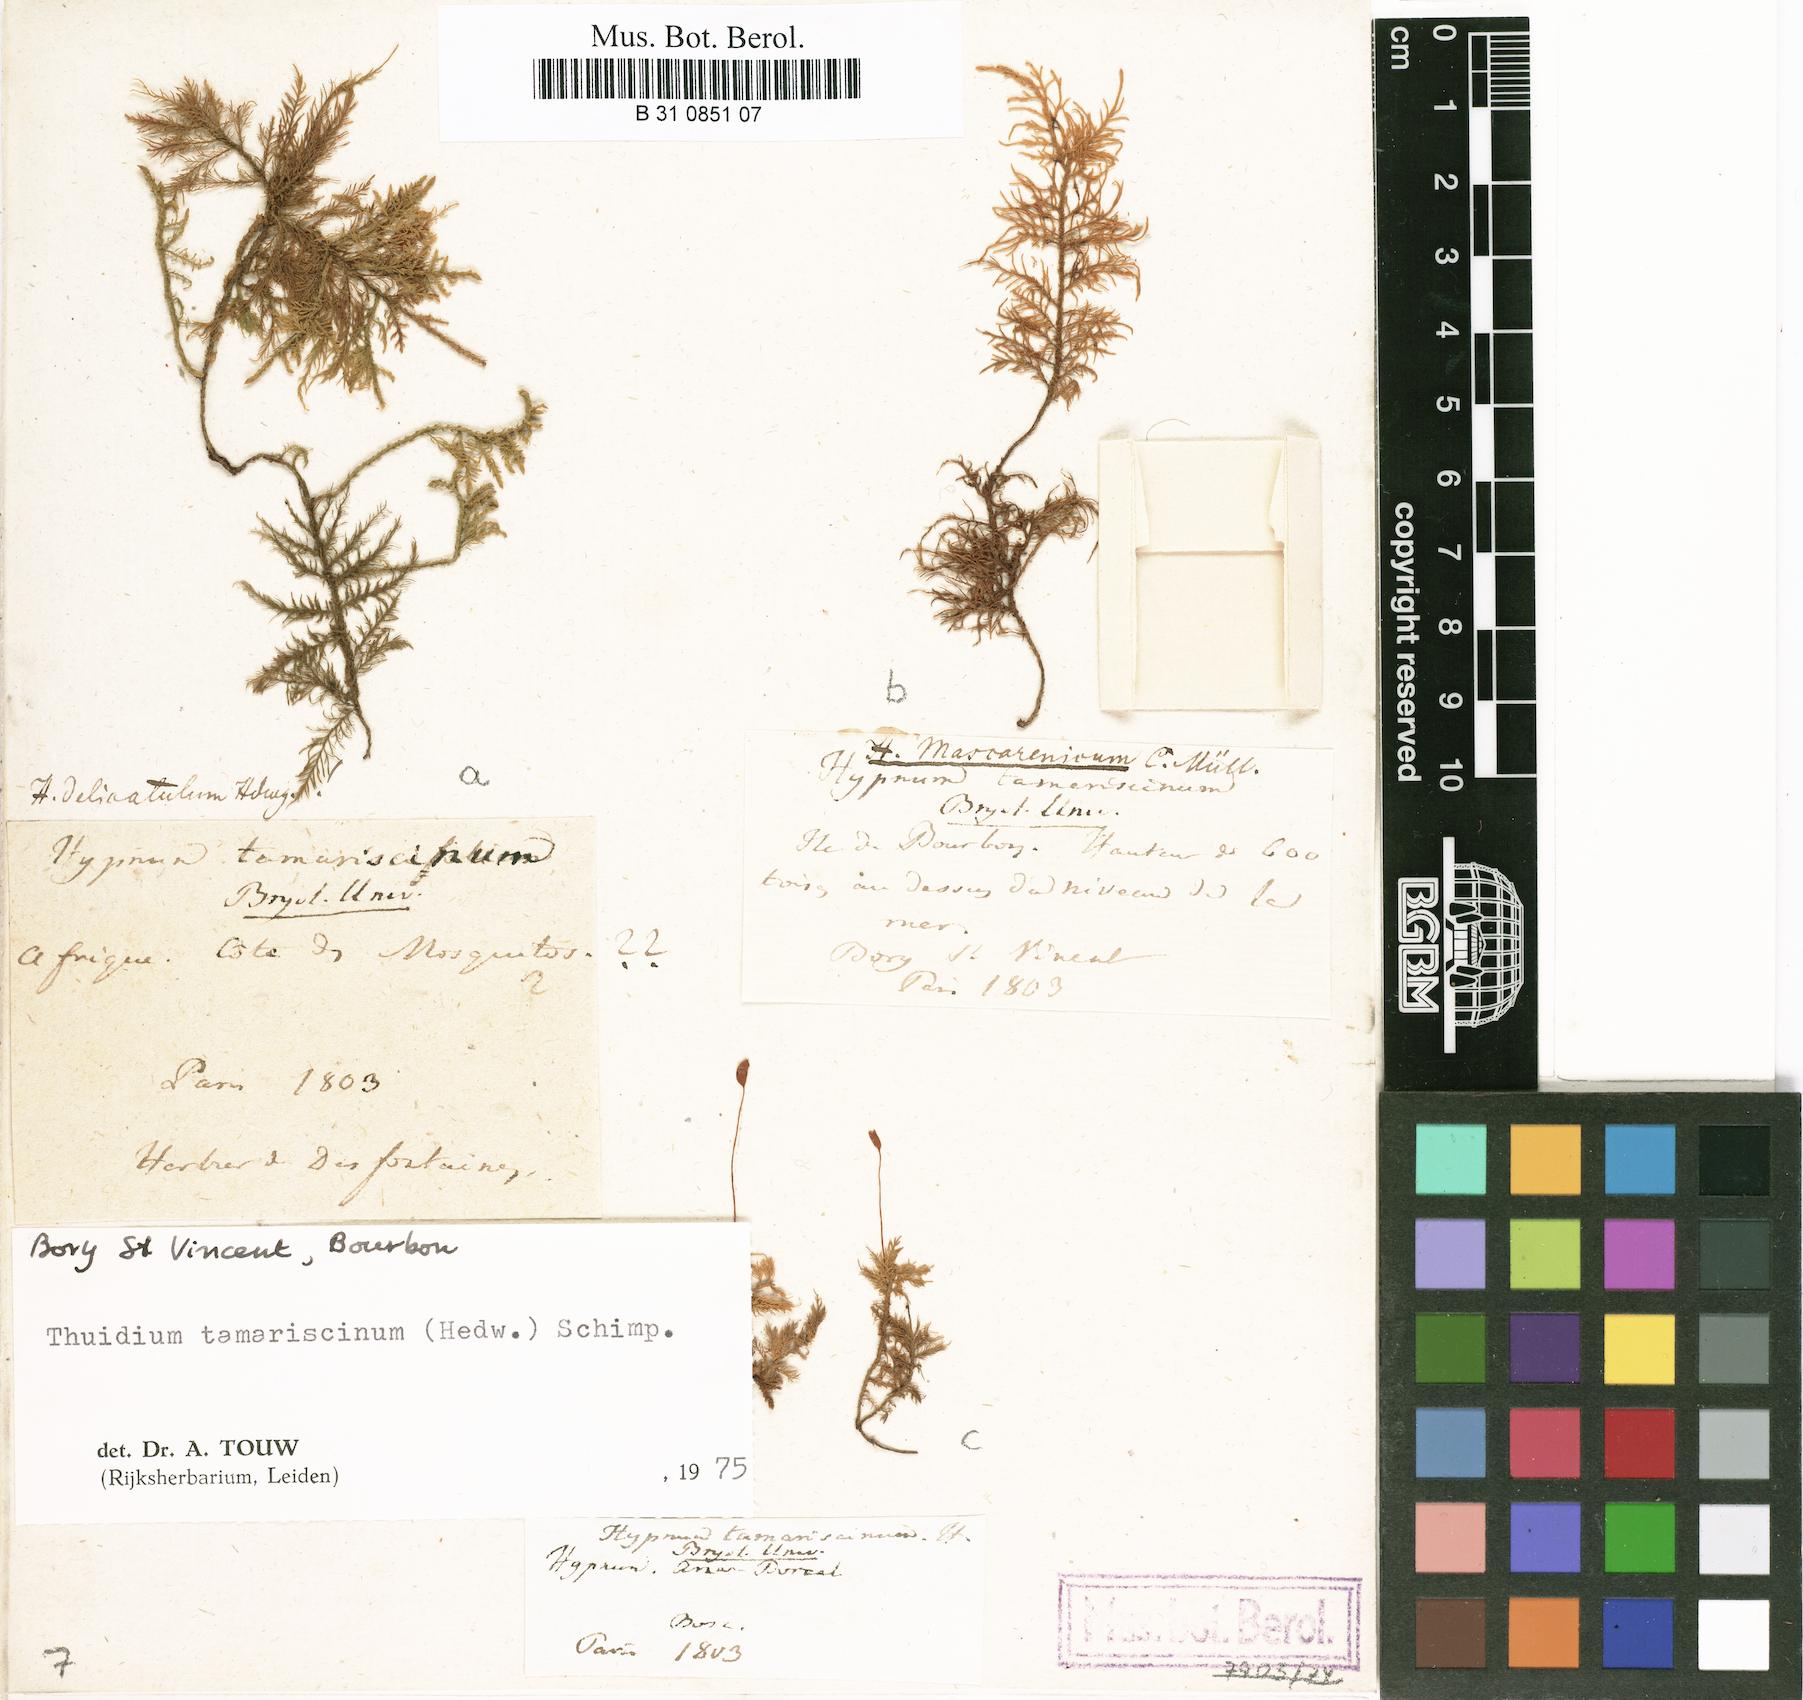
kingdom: Plantae
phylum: Bryophyta
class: Bryopsida
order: Hypnales
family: Thuidiaceae
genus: Thuidium
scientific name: Thuidium tamariscinum
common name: Common tamarisk-moss
